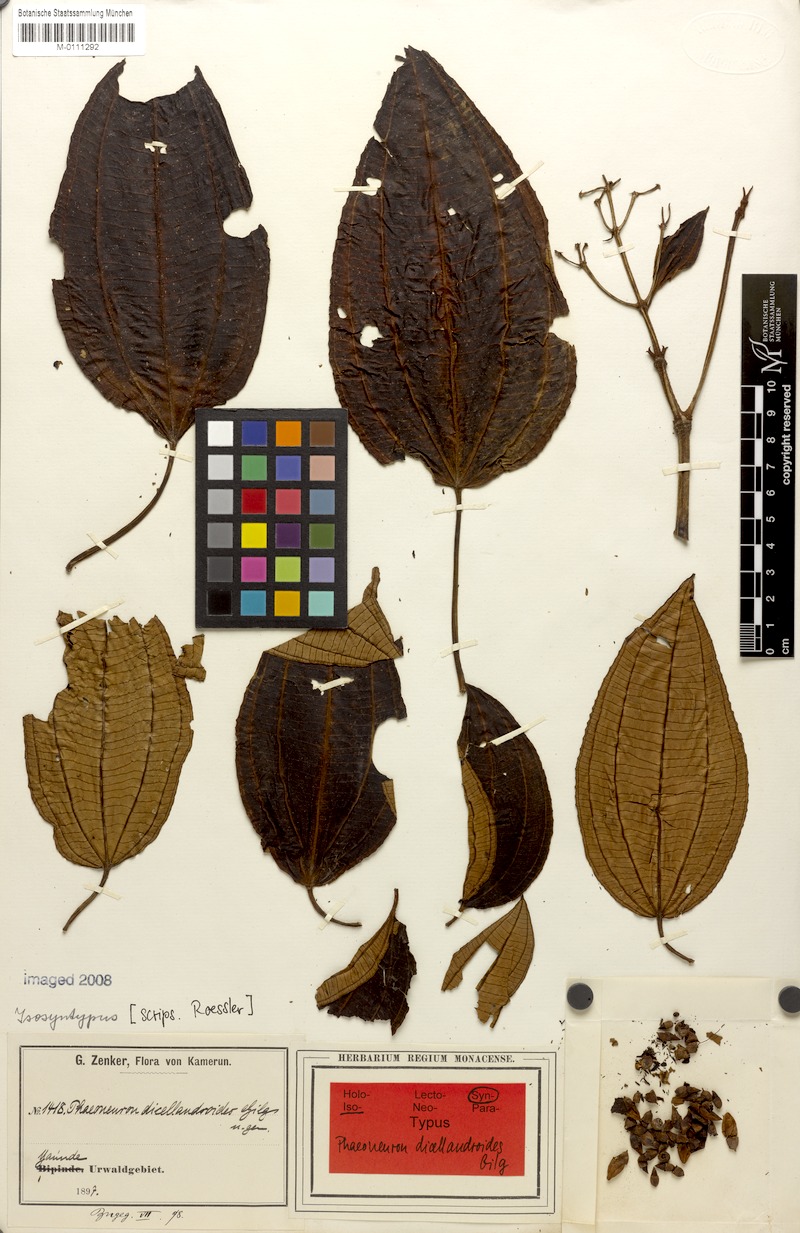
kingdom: Plantae
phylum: Tracheophyta
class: Magnoliopsida
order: Myrtales
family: Melastomataceae
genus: Ochthocharis
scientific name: Ochthocharis dicellandroides
